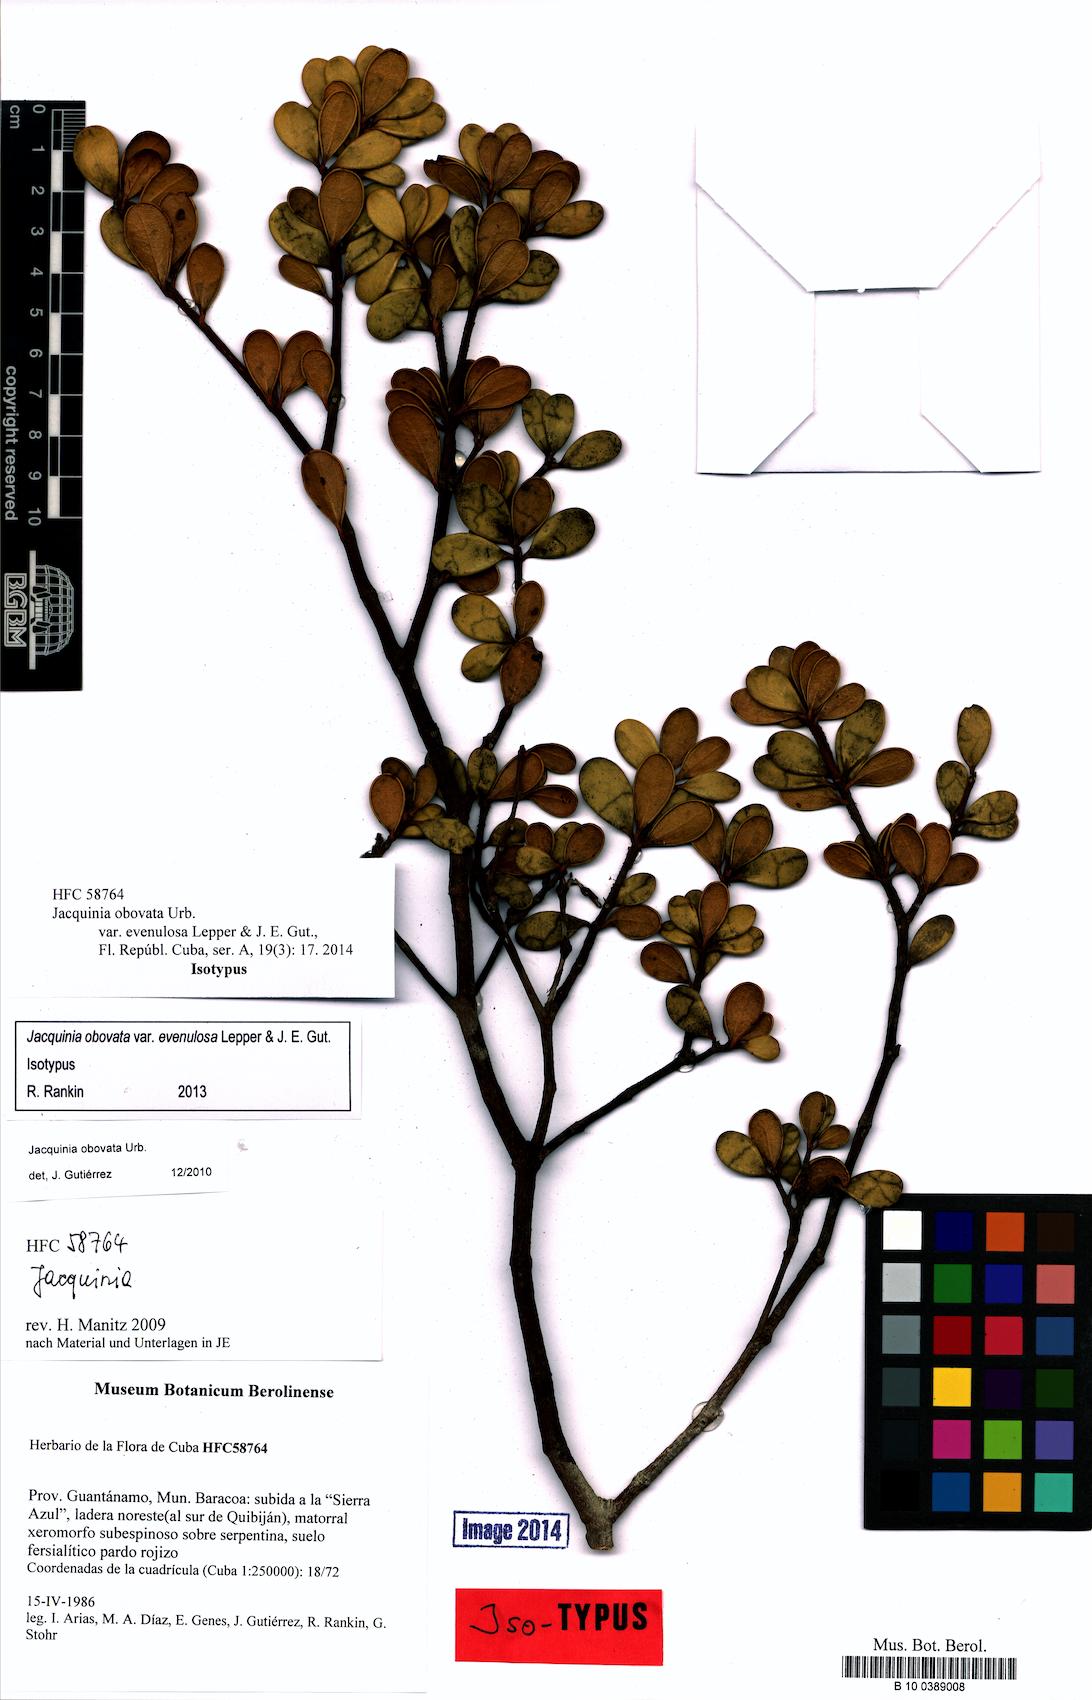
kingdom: Plantae
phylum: Tracheophyta
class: Magnoliopsida
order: Ericales
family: Primulaceae
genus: Jacquinia
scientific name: Jacquinia obovata
